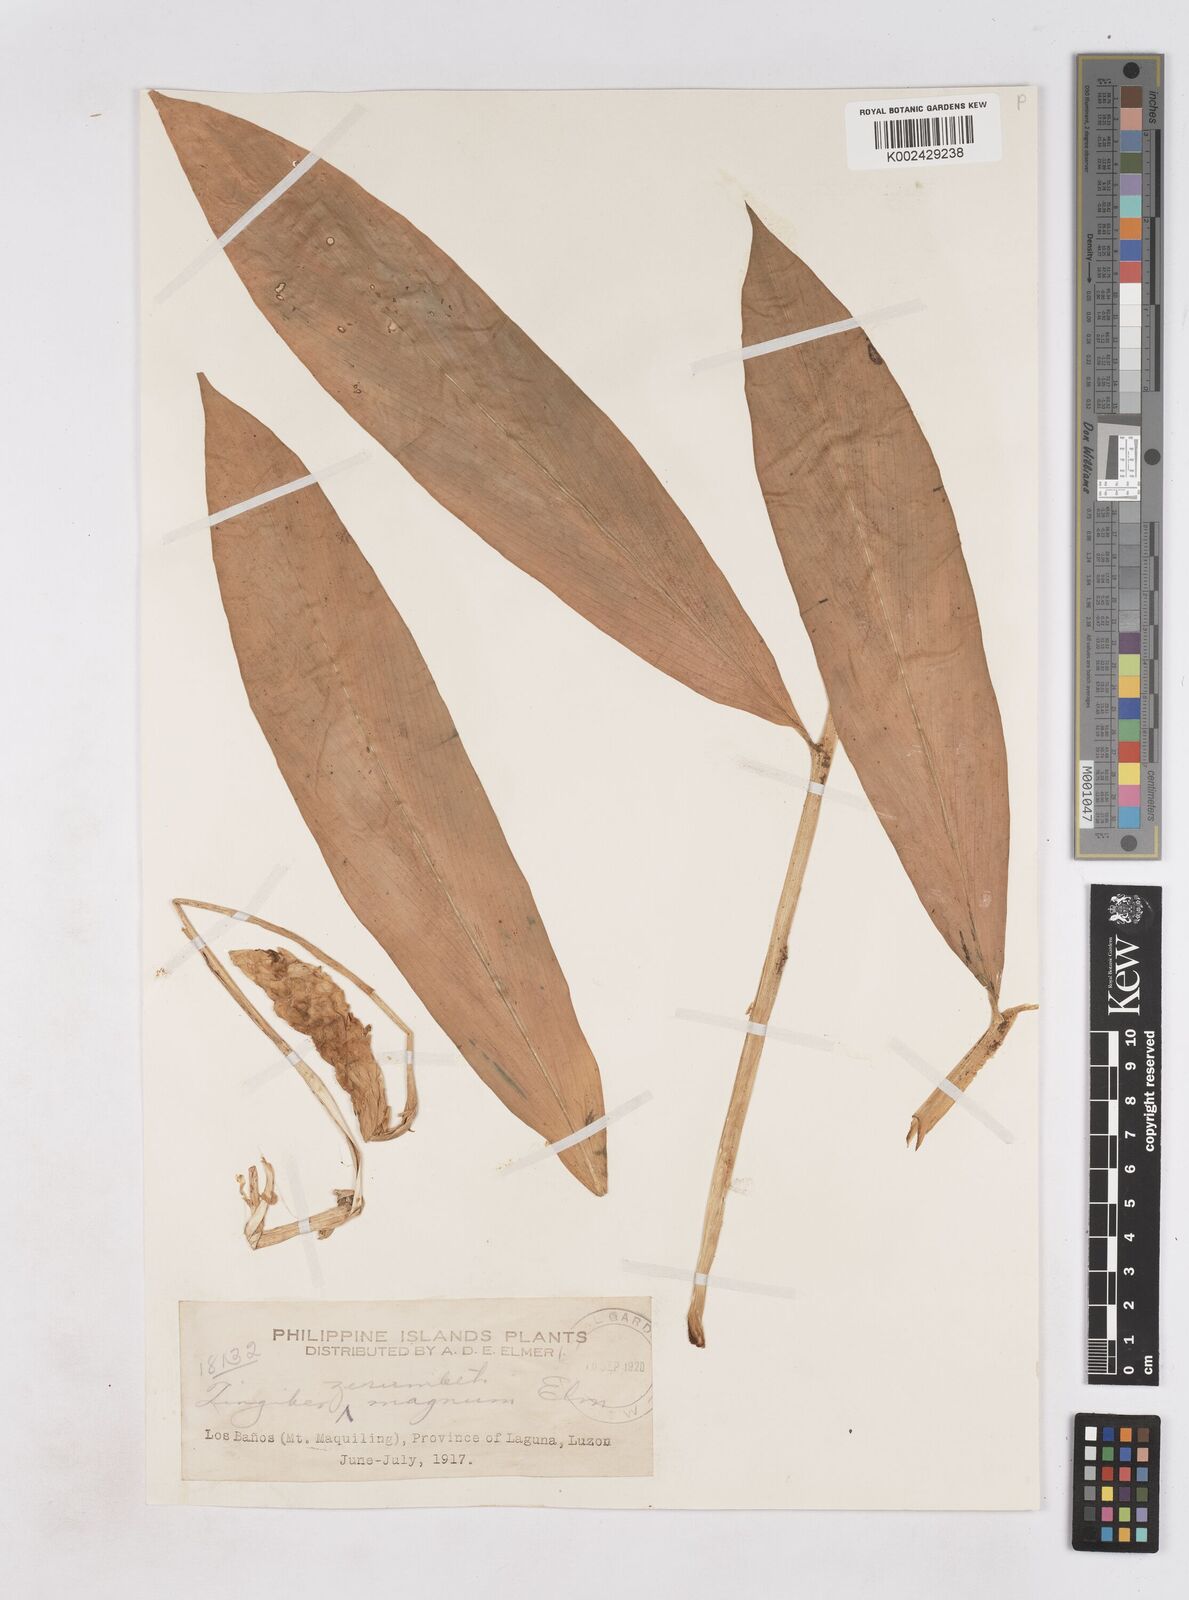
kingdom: Plantae
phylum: Tracheophyta
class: Liliopsida
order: Zingiberales
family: Zingiberaceae
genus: Zingiber
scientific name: Zingiber zerumbet
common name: Bitter ginger
